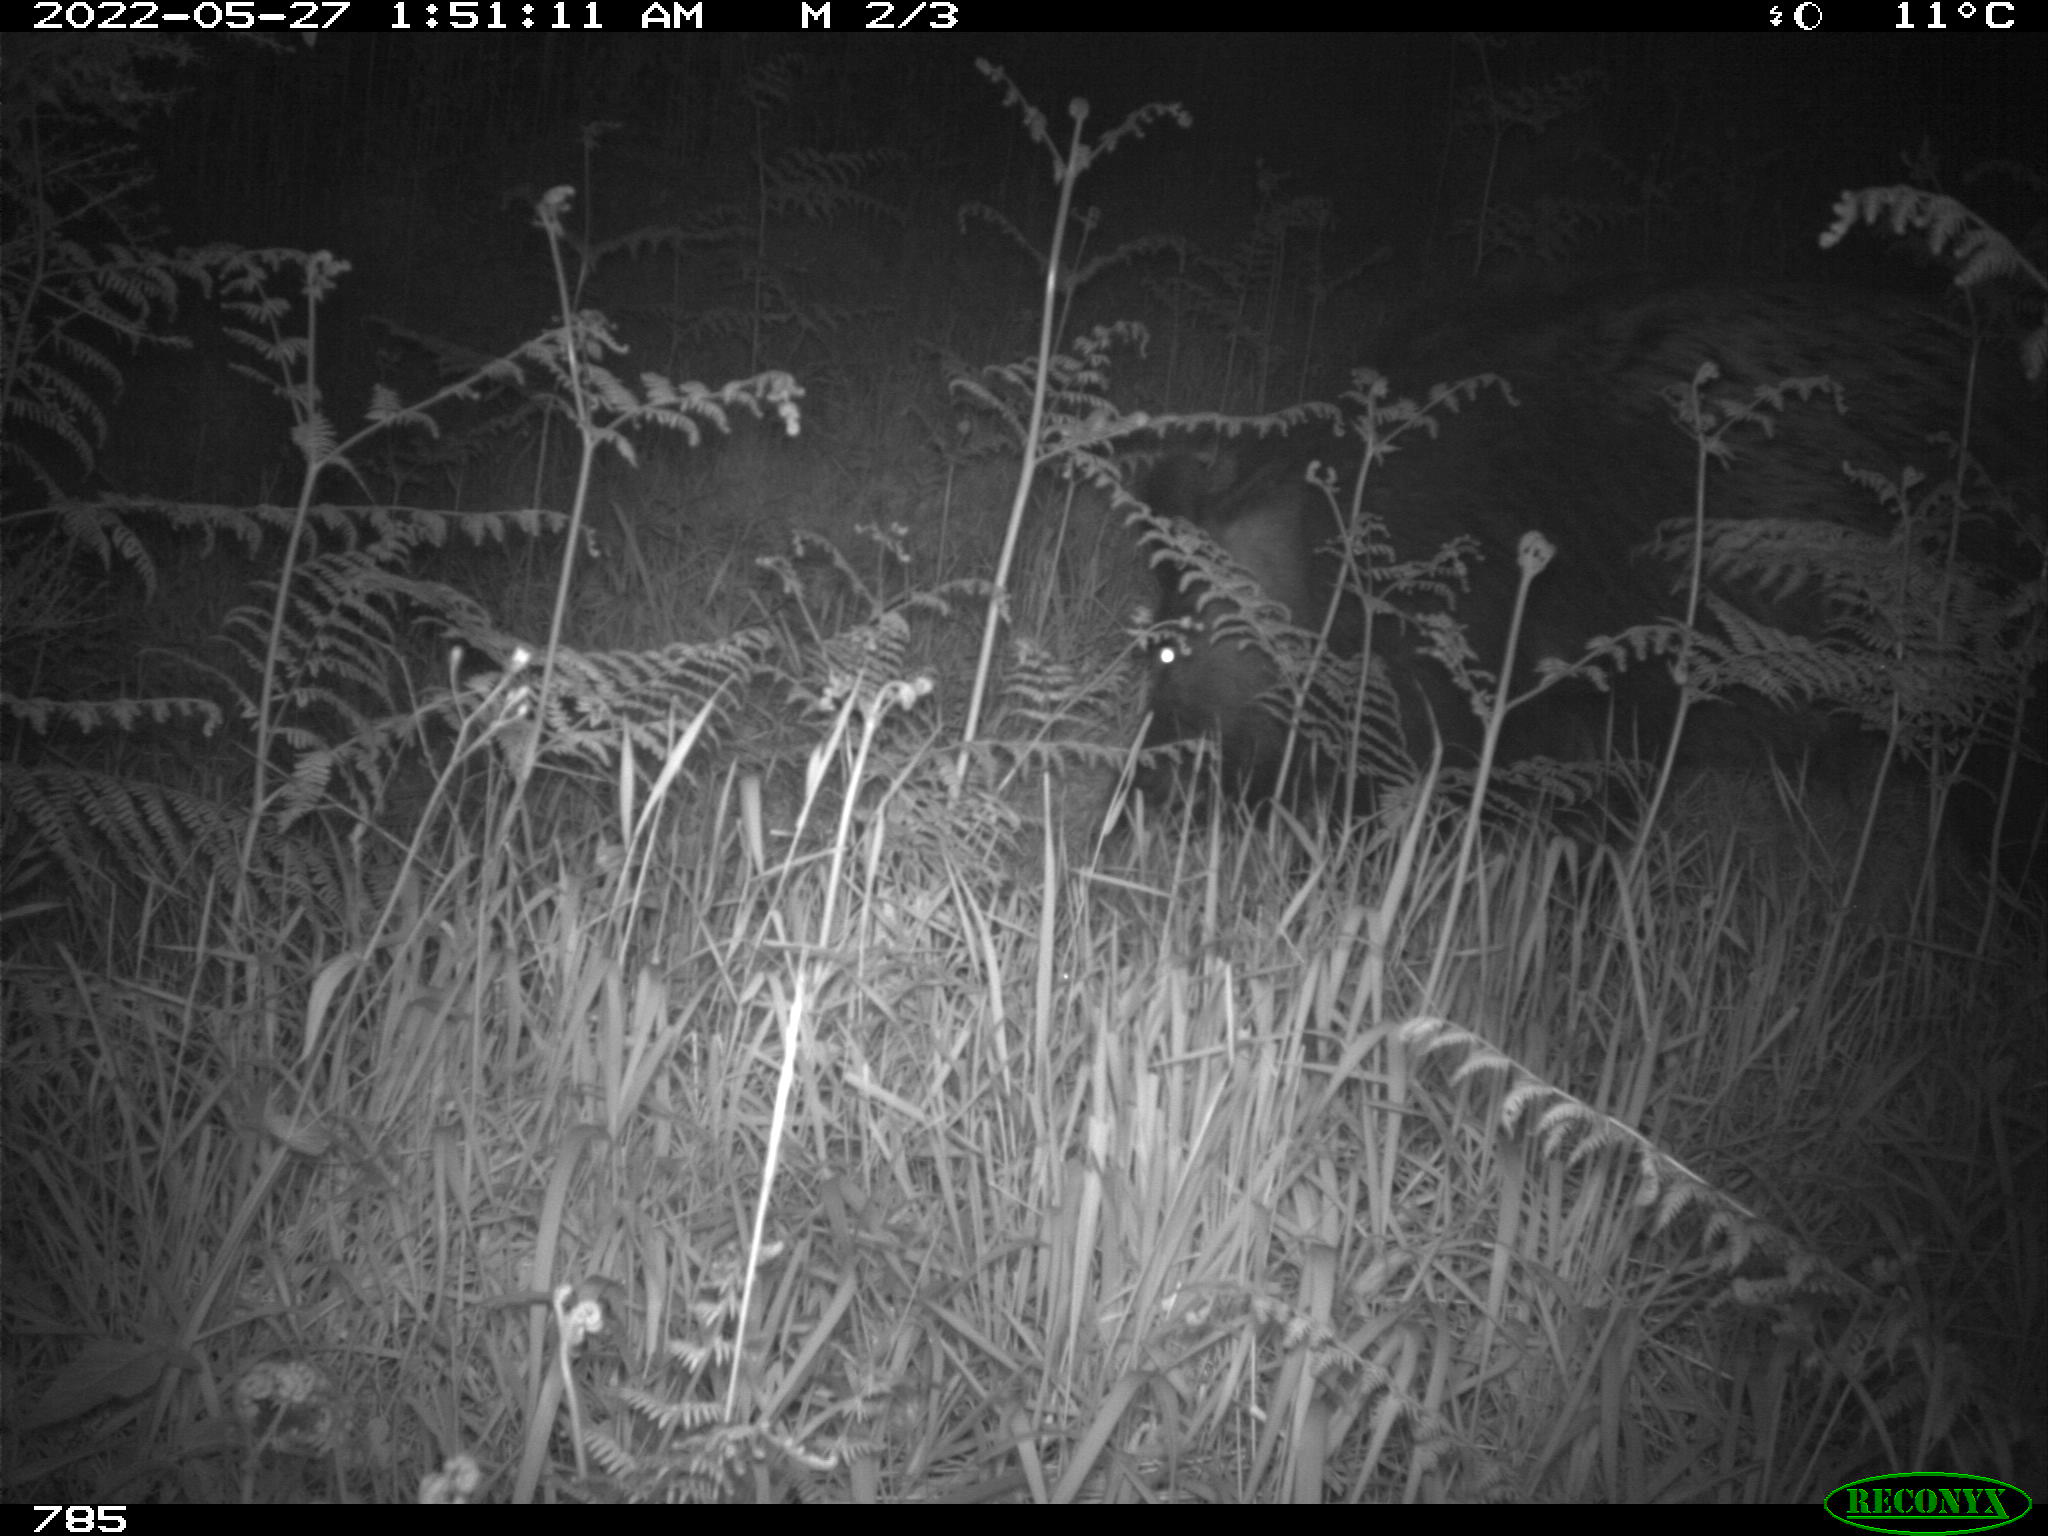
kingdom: Animalia
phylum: Chordata
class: Mammalia
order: Artiodactyla
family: Suidae
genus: Sus
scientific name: Sus scrofa
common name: Wild boar
